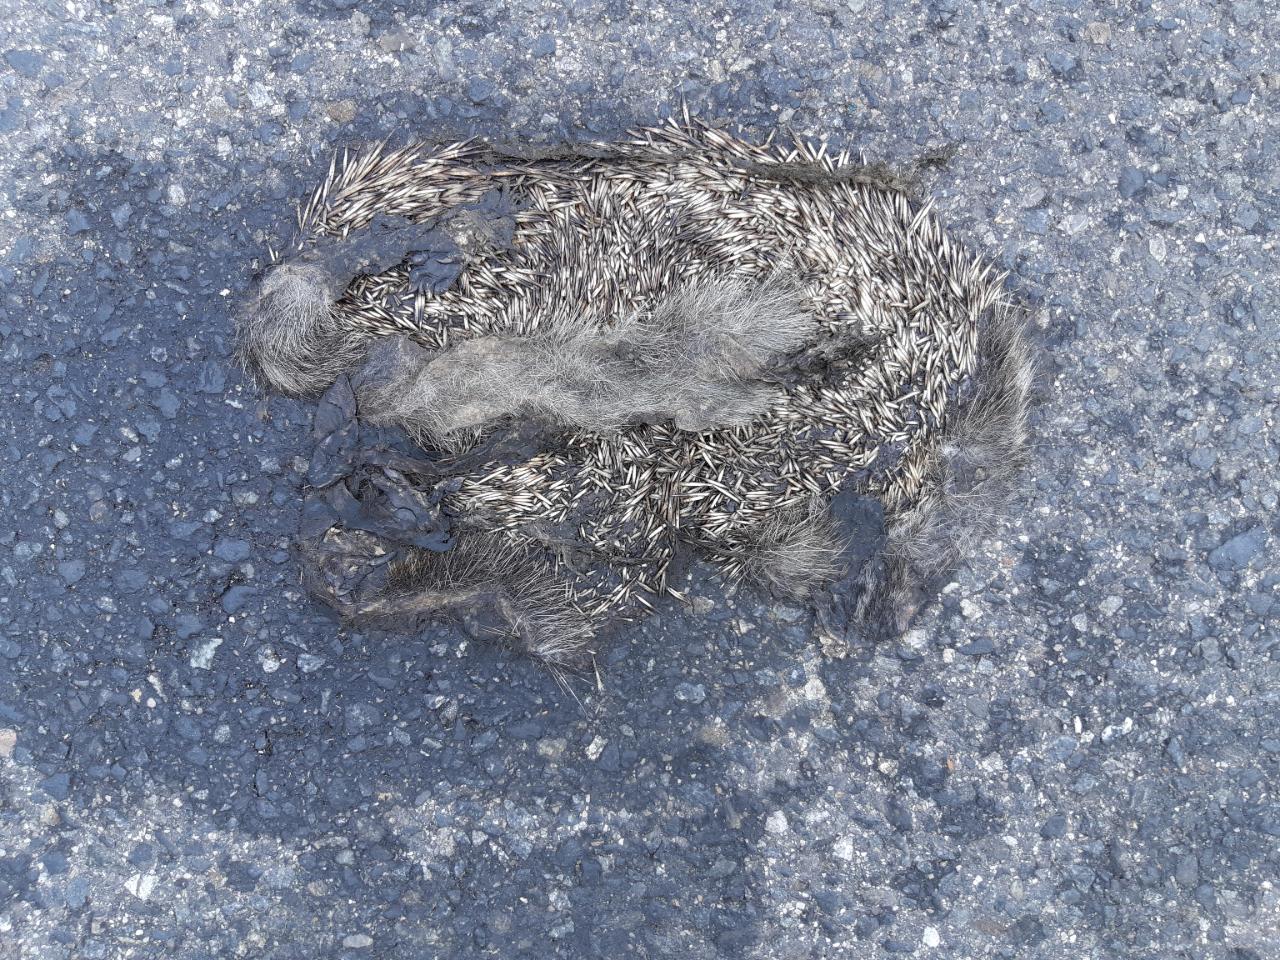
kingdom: Animalia
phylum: Chordata
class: Mammalia
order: Erinaceomorpha
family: Erinaceidae
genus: Erinaceus
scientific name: Erinaceus
